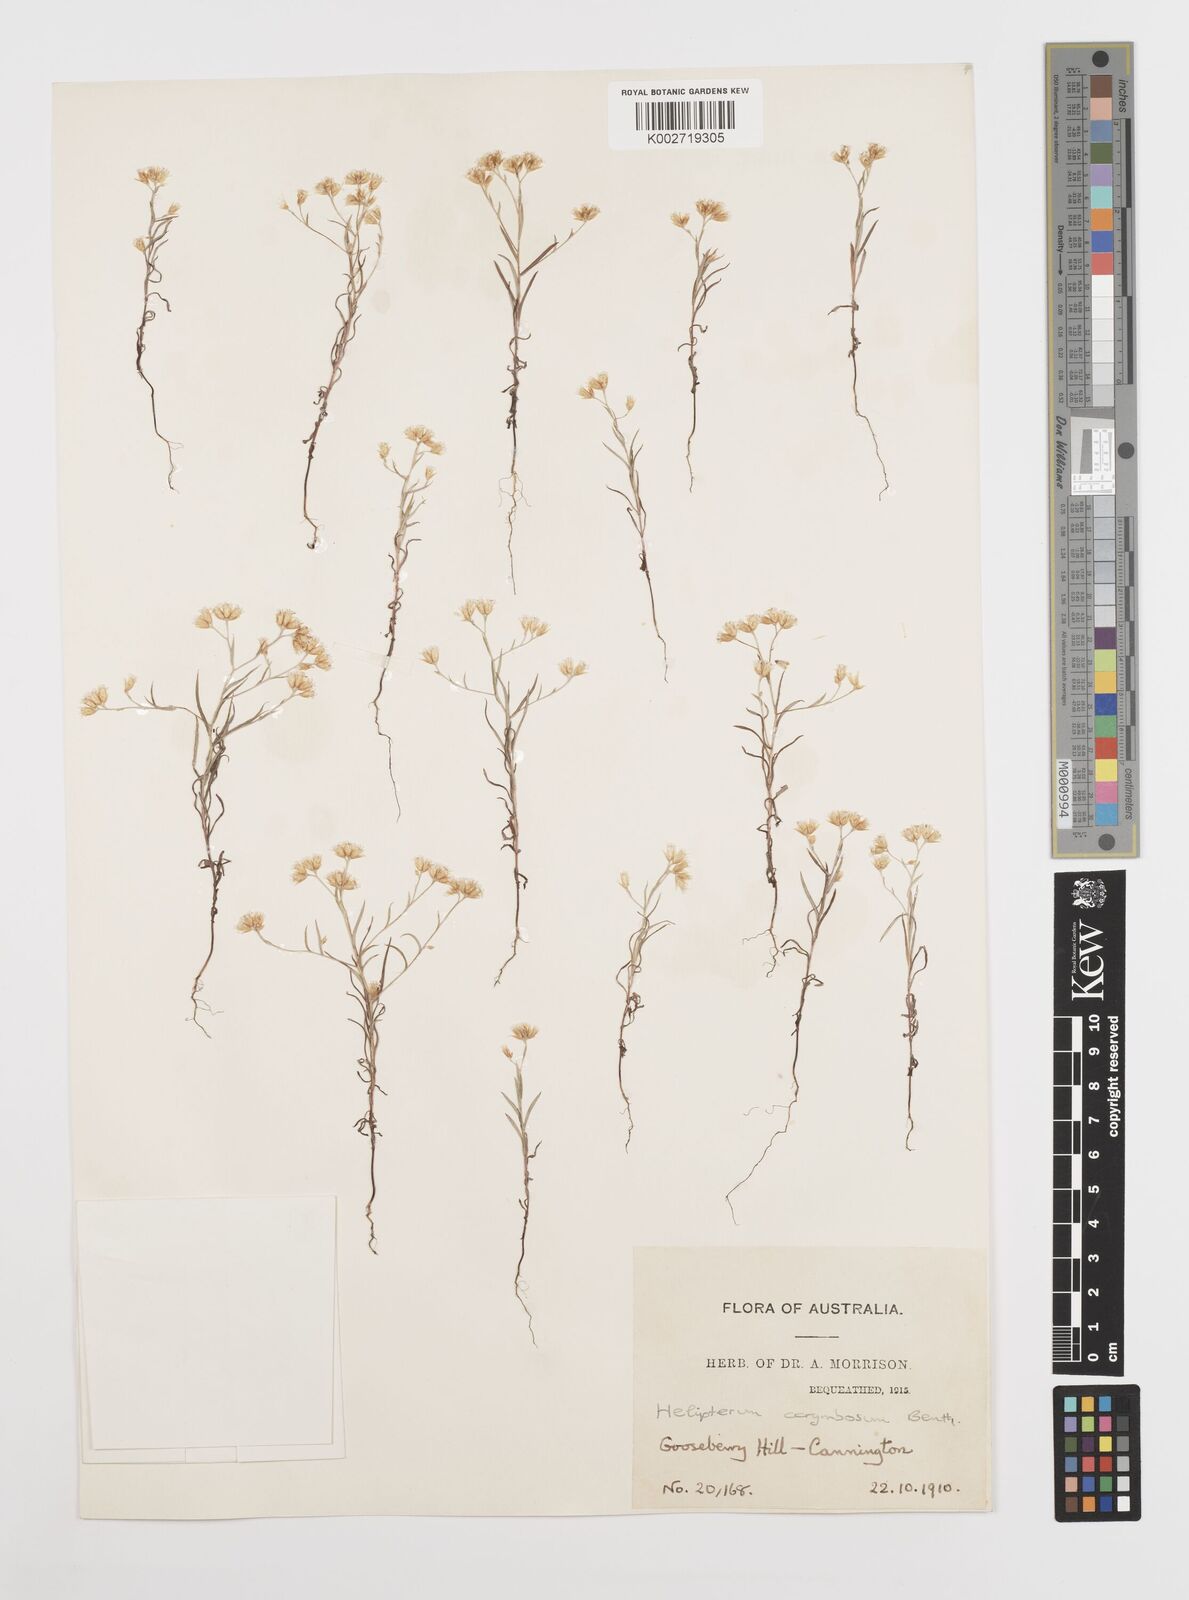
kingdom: Plantae
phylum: Tracheophyta
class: Magnoliopsida
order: Asterales
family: Asteraceae
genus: Rhodanthe
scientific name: Rhodanthe corymbosa
